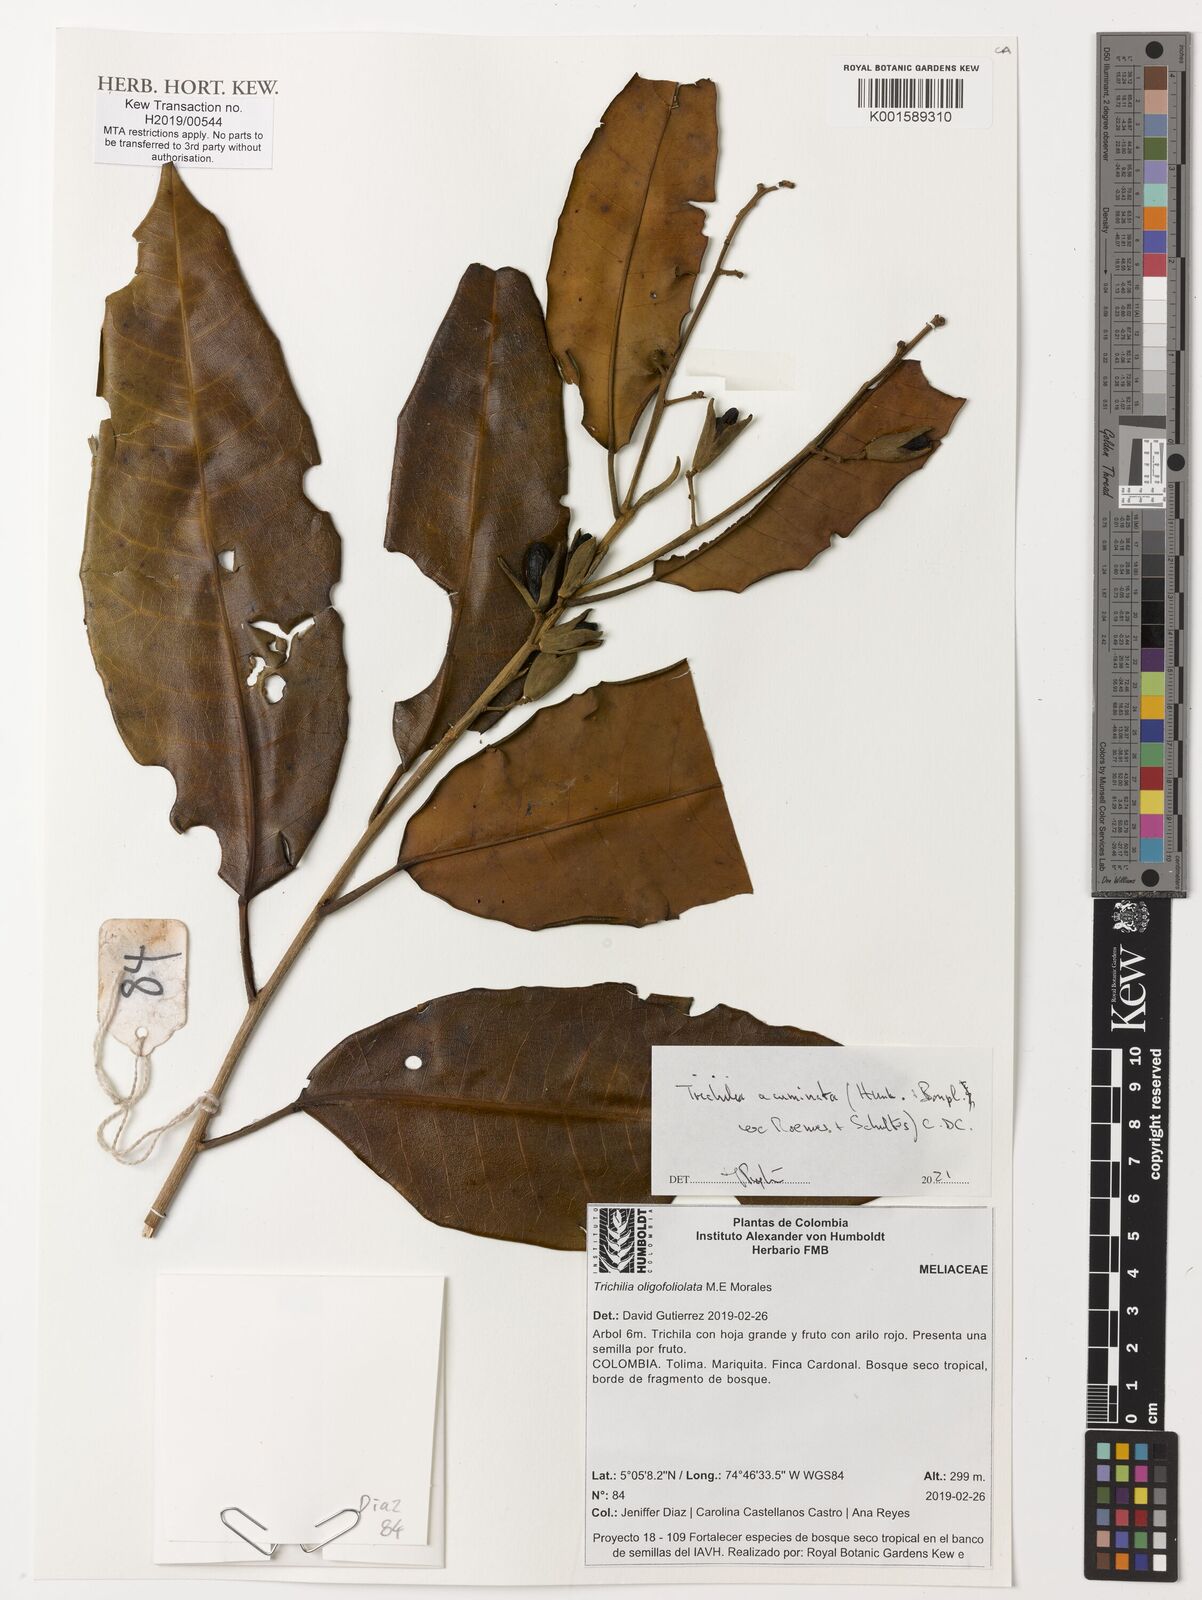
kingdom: Plantae
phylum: Tracheophyta
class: Magnoliopsida
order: Sapindales
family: Meliaceae
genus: Trichilia
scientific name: Trichilia acuminata
